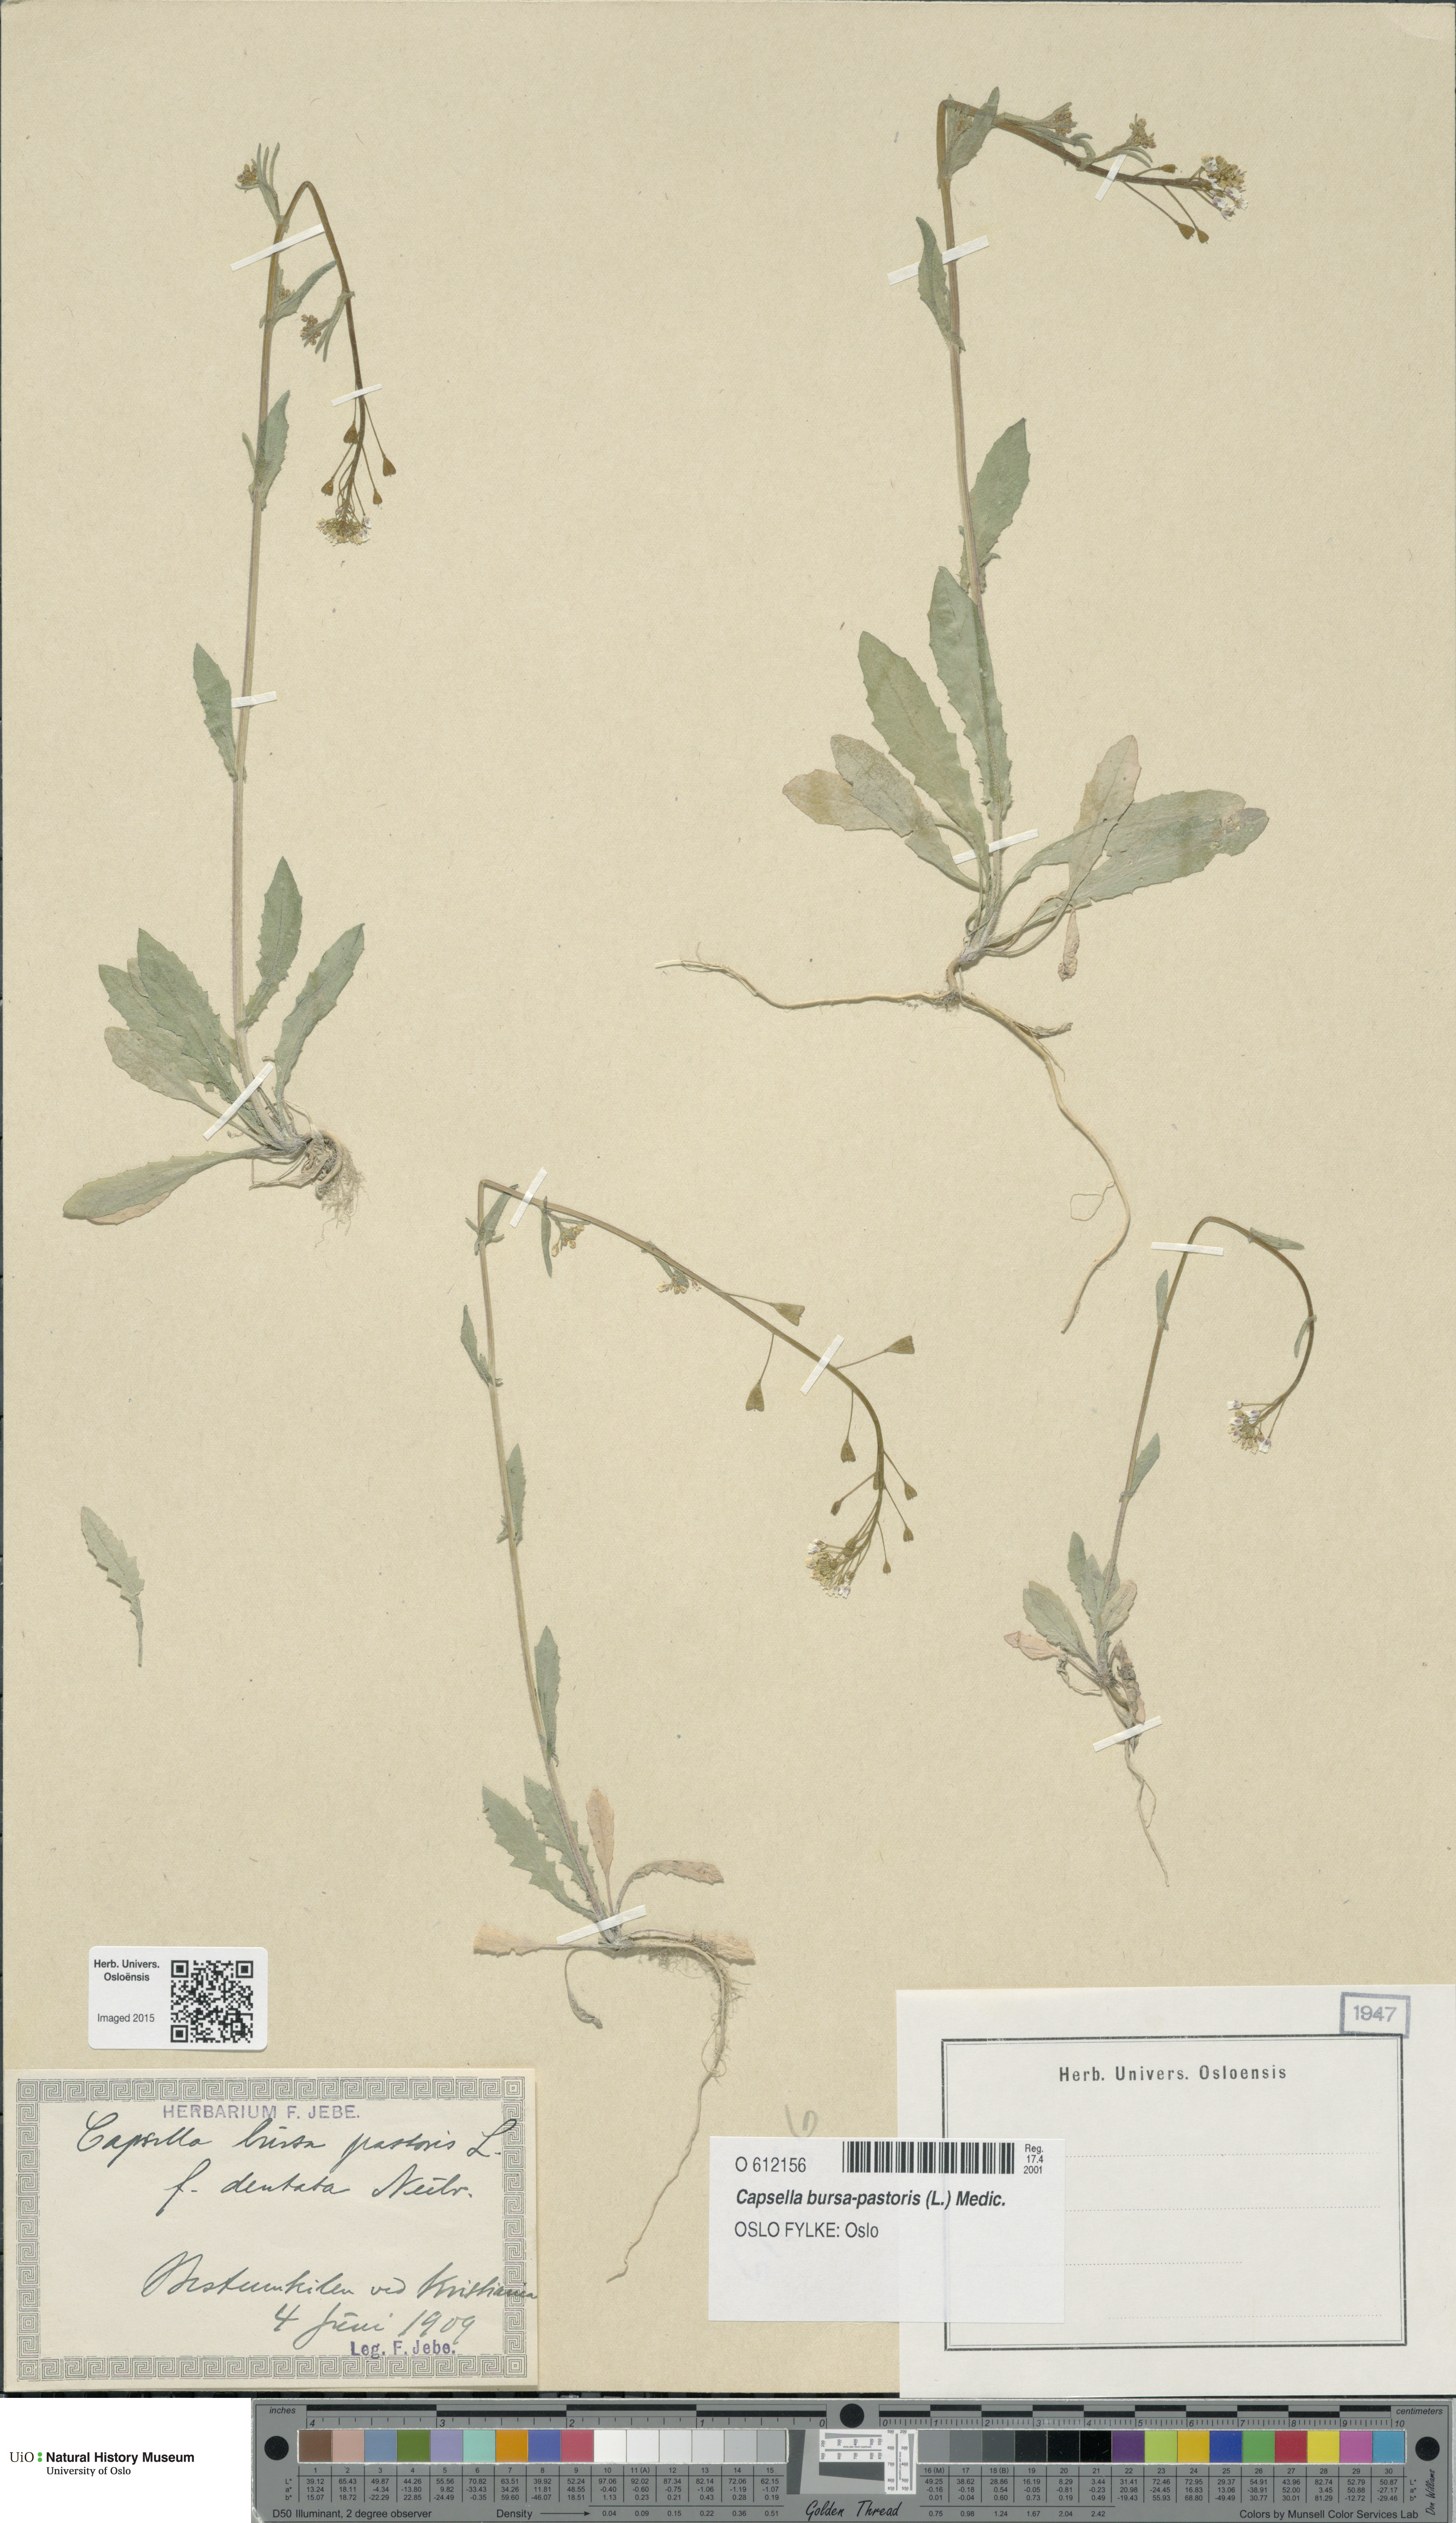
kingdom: Plantae
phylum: Tracheophyta
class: Magnoliopsida
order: Brassicales
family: Brassicaceae
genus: Capsella
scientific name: Capsella bursa-pastoris
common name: Shepherd's purse
